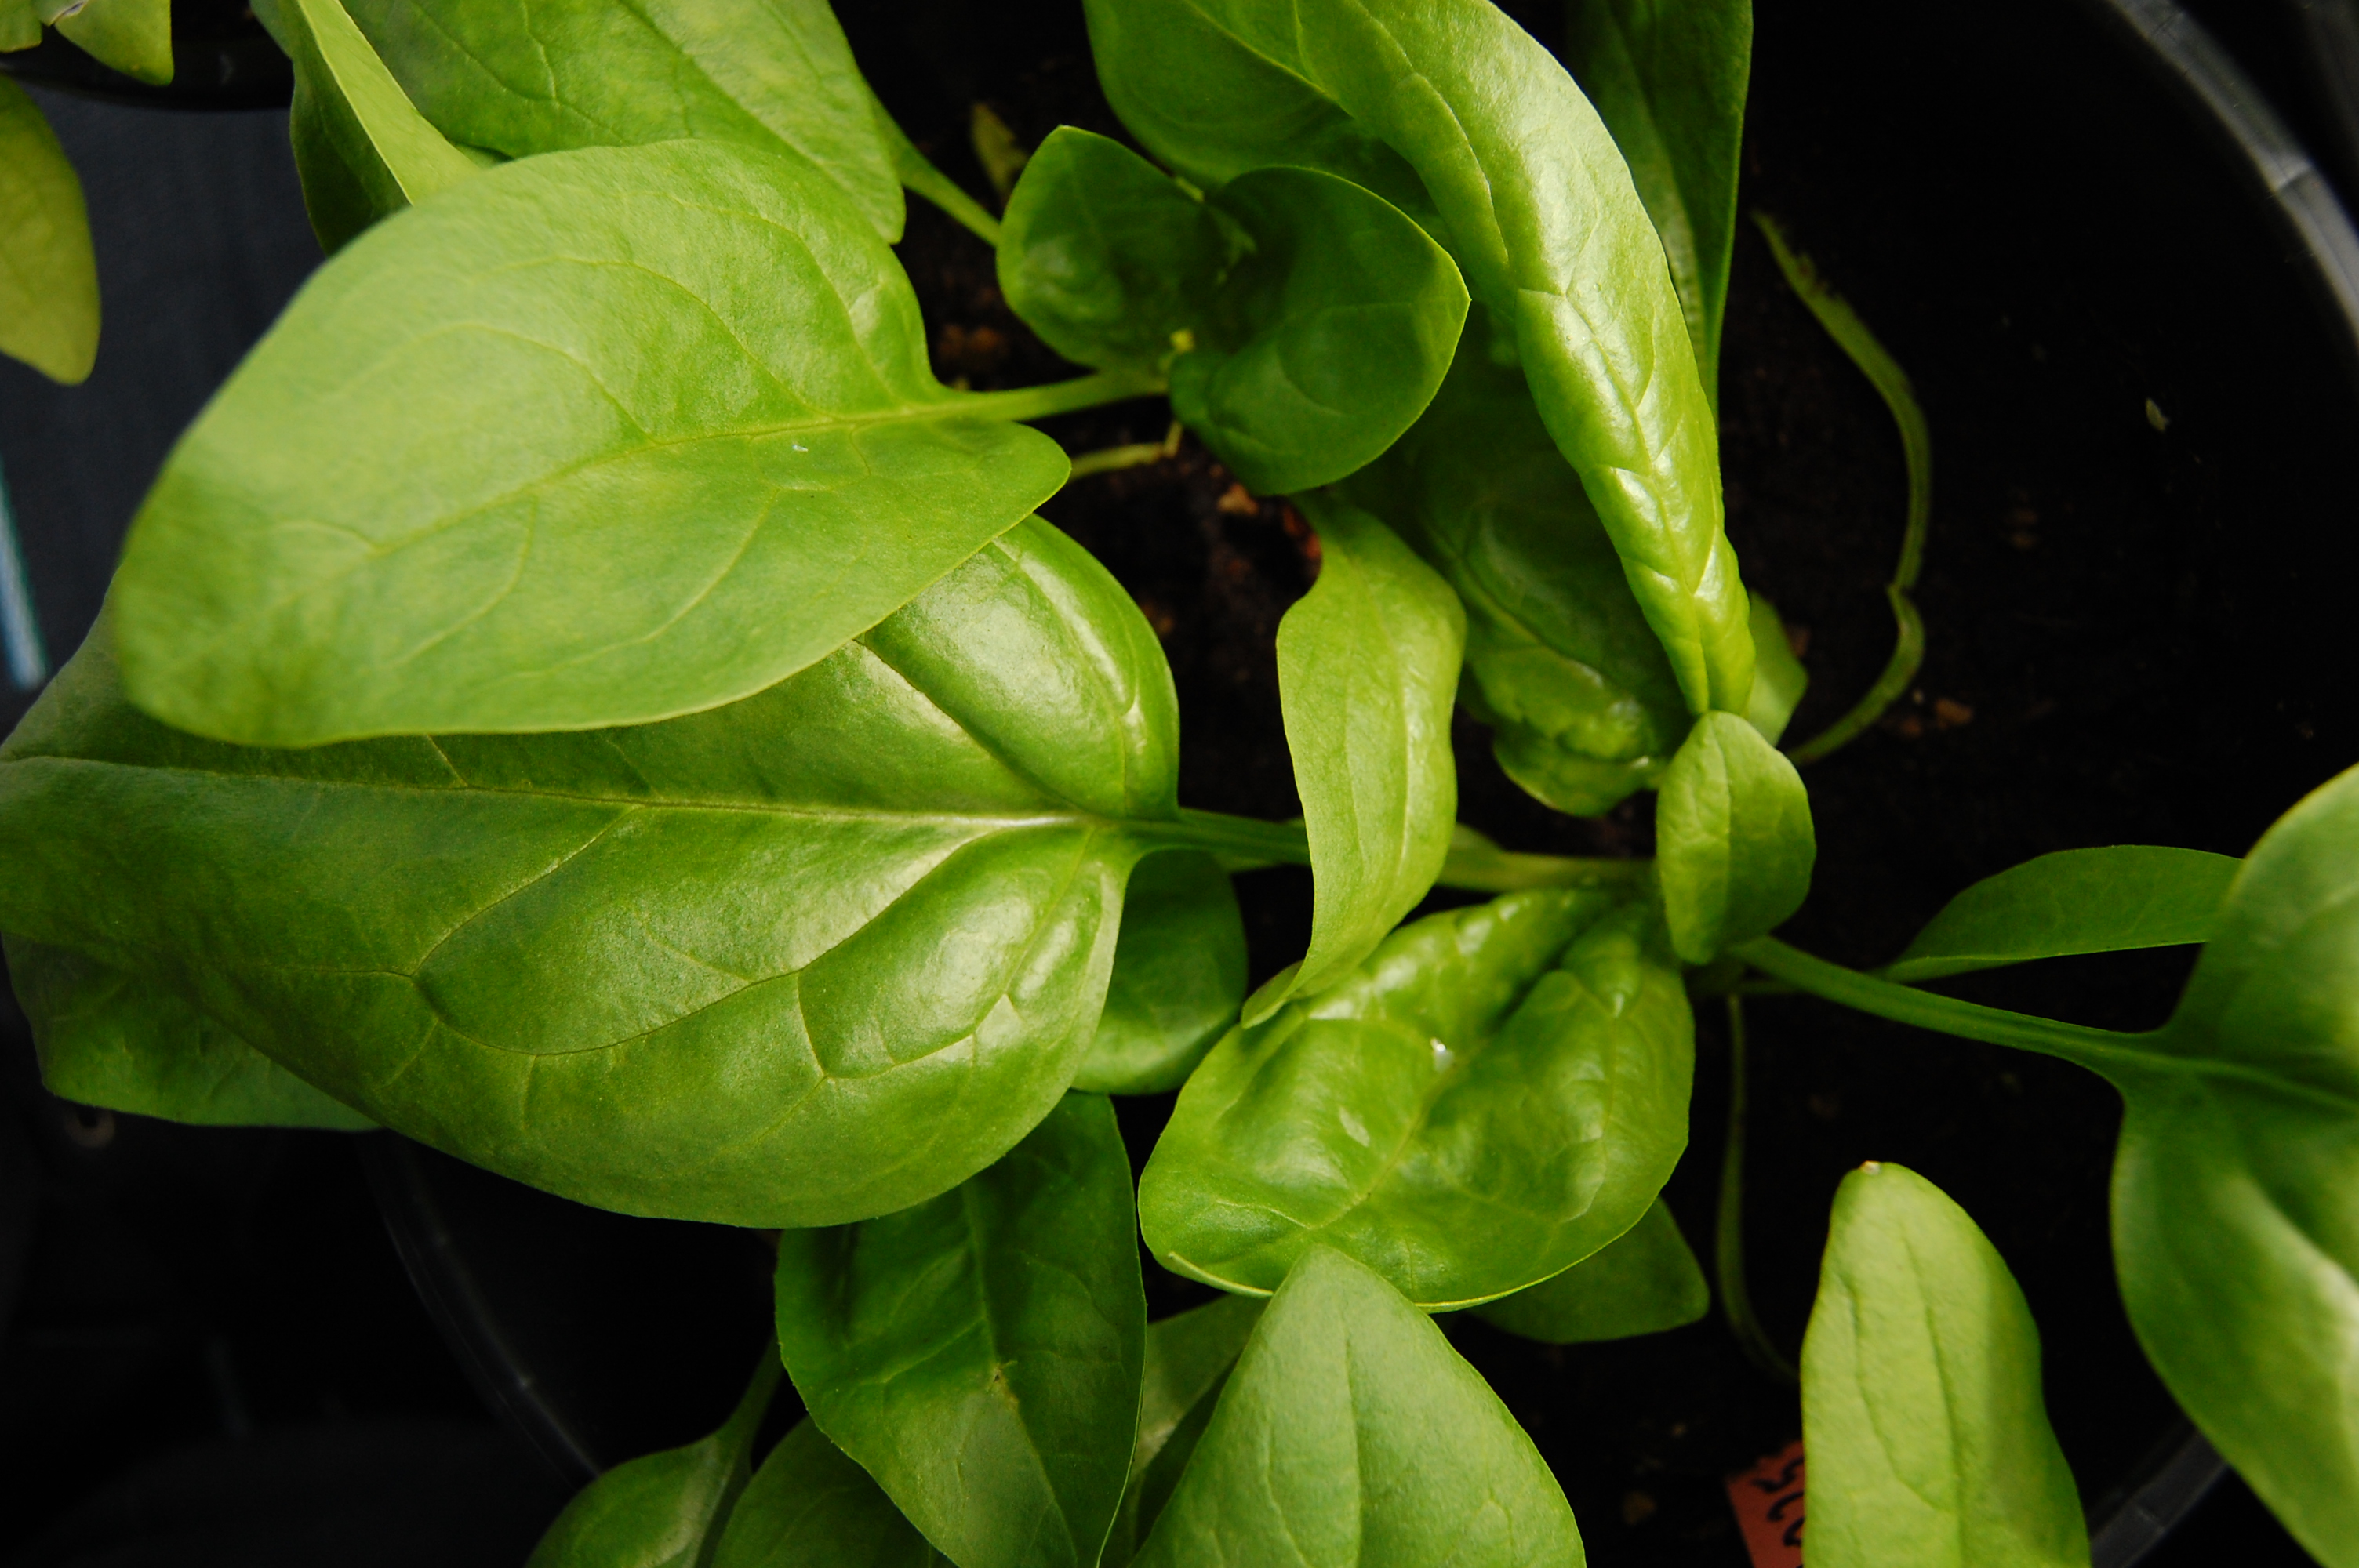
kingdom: Plantae
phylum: Tracheophyta
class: Magnoliopsida
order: Caryophyllales
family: Amaranthaceae
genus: Spinacia
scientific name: Spinacia oleracea
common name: Spinach
